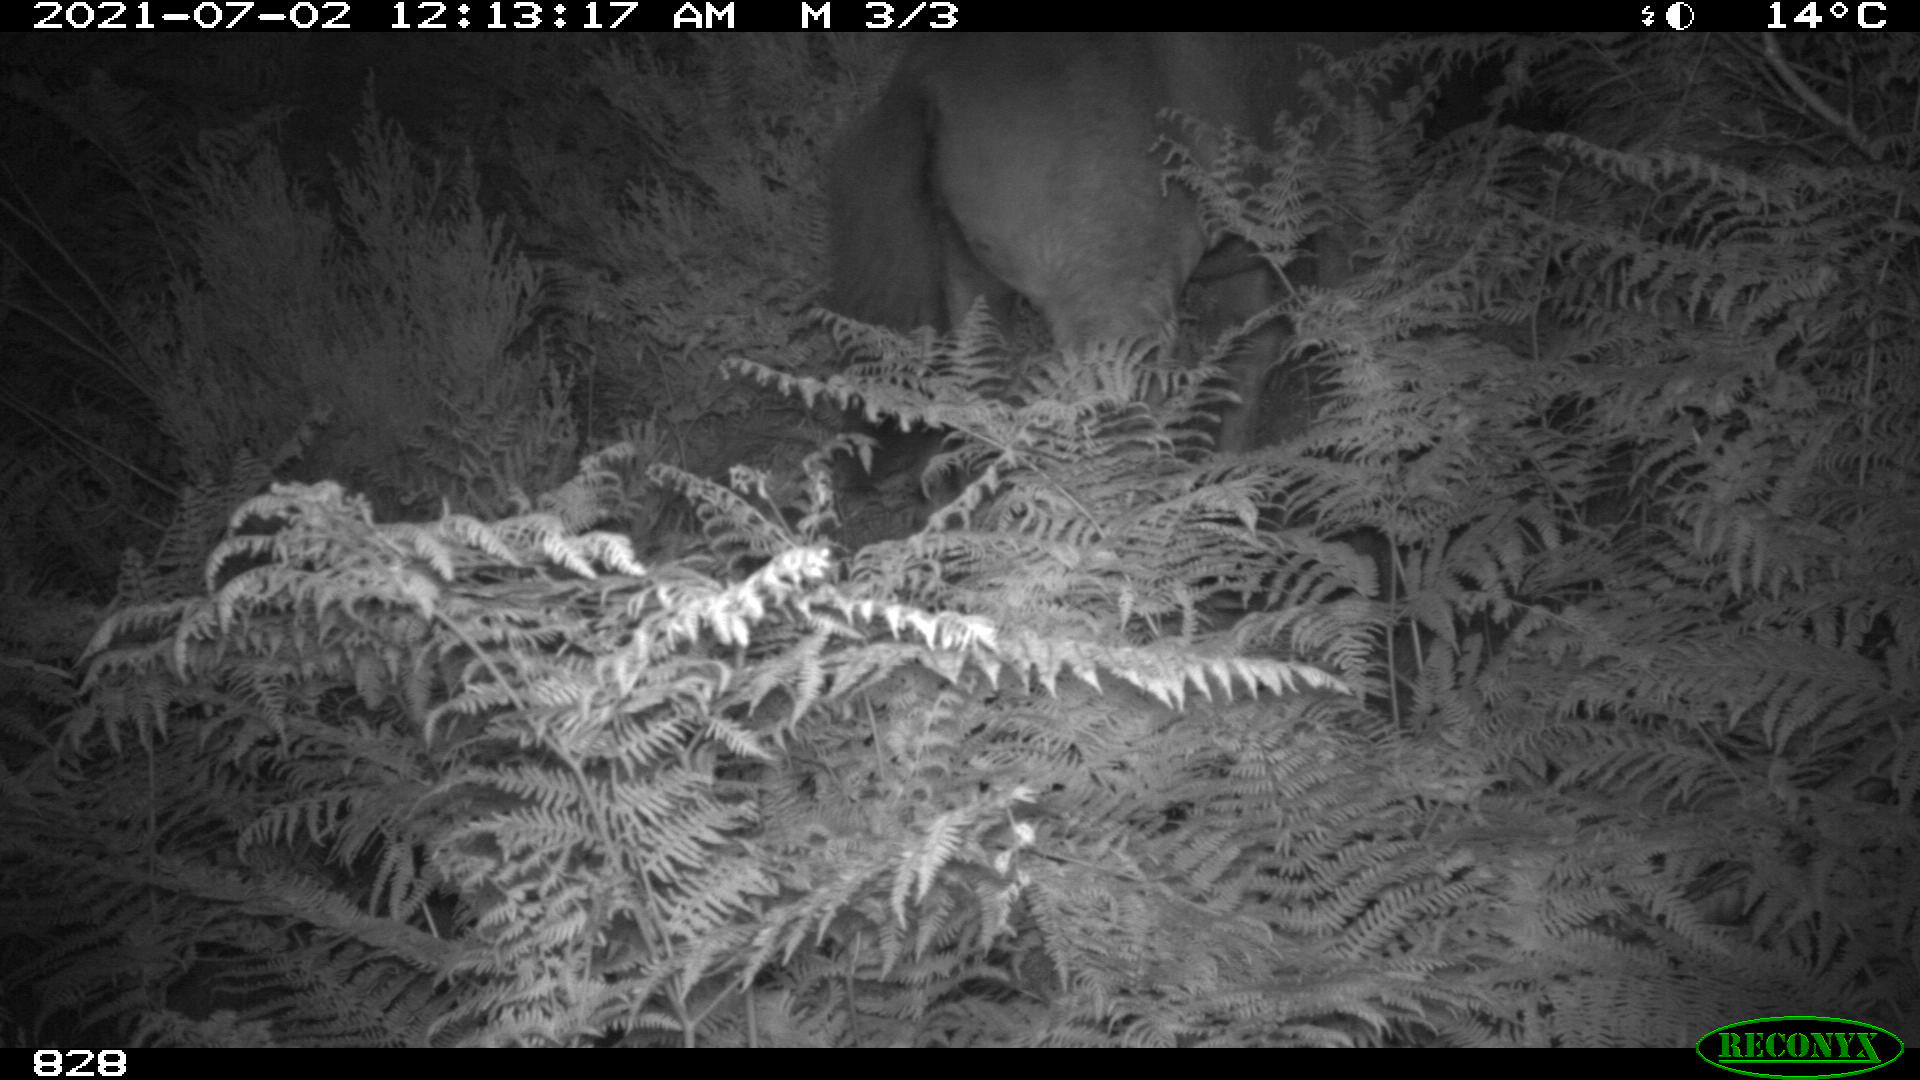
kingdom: Animalia
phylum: Chordata
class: Mammalia
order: Perissodactyla
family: Equidae
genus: Equus
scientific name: Equus caballus
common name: Horse
